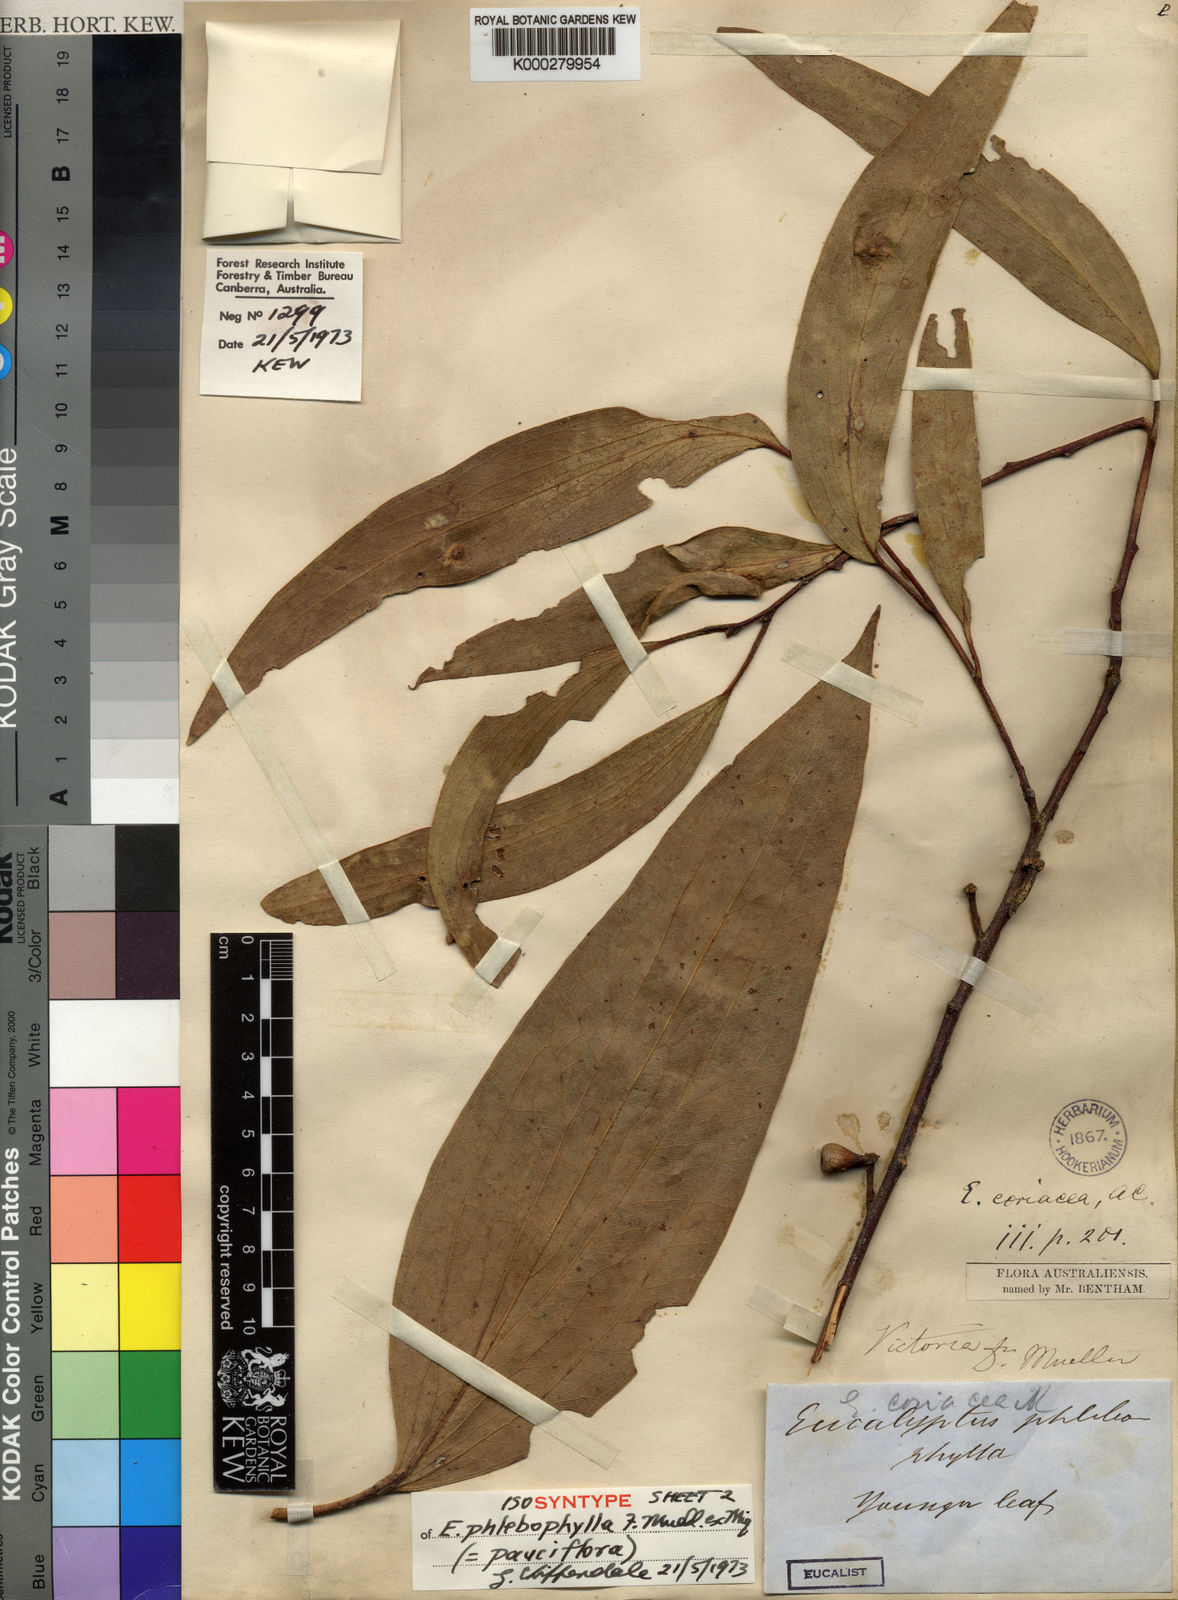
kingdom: Plantae
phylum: Tracheophyta
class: Magnoliopsida
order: Myrtales
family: Myrtaceae
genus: Eucalyptus
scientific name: Eucalyptus pauciflora
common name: Snow gum
